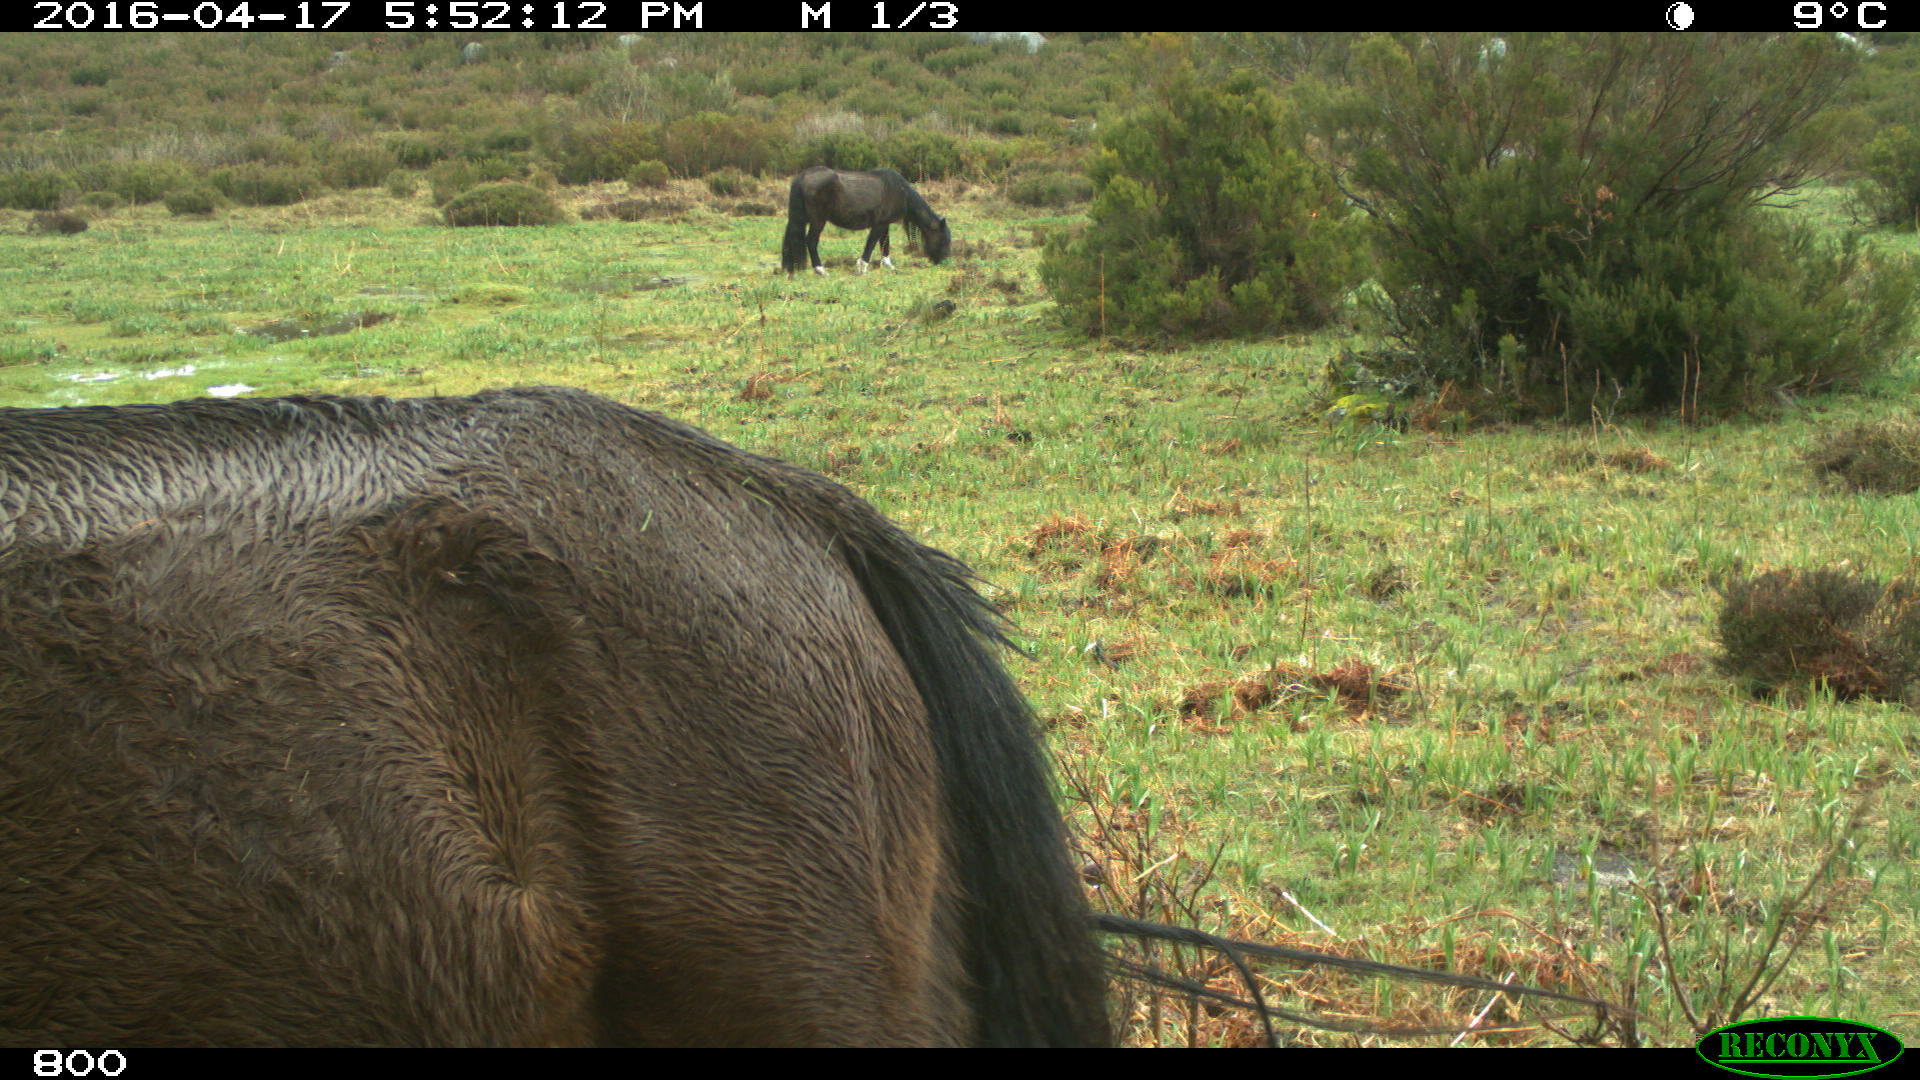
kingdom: Animalia
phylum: Chordata
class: Mammalia
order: Perissodactyla
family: Equidae
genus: Equus
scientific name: Equus caballus
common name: Horse
